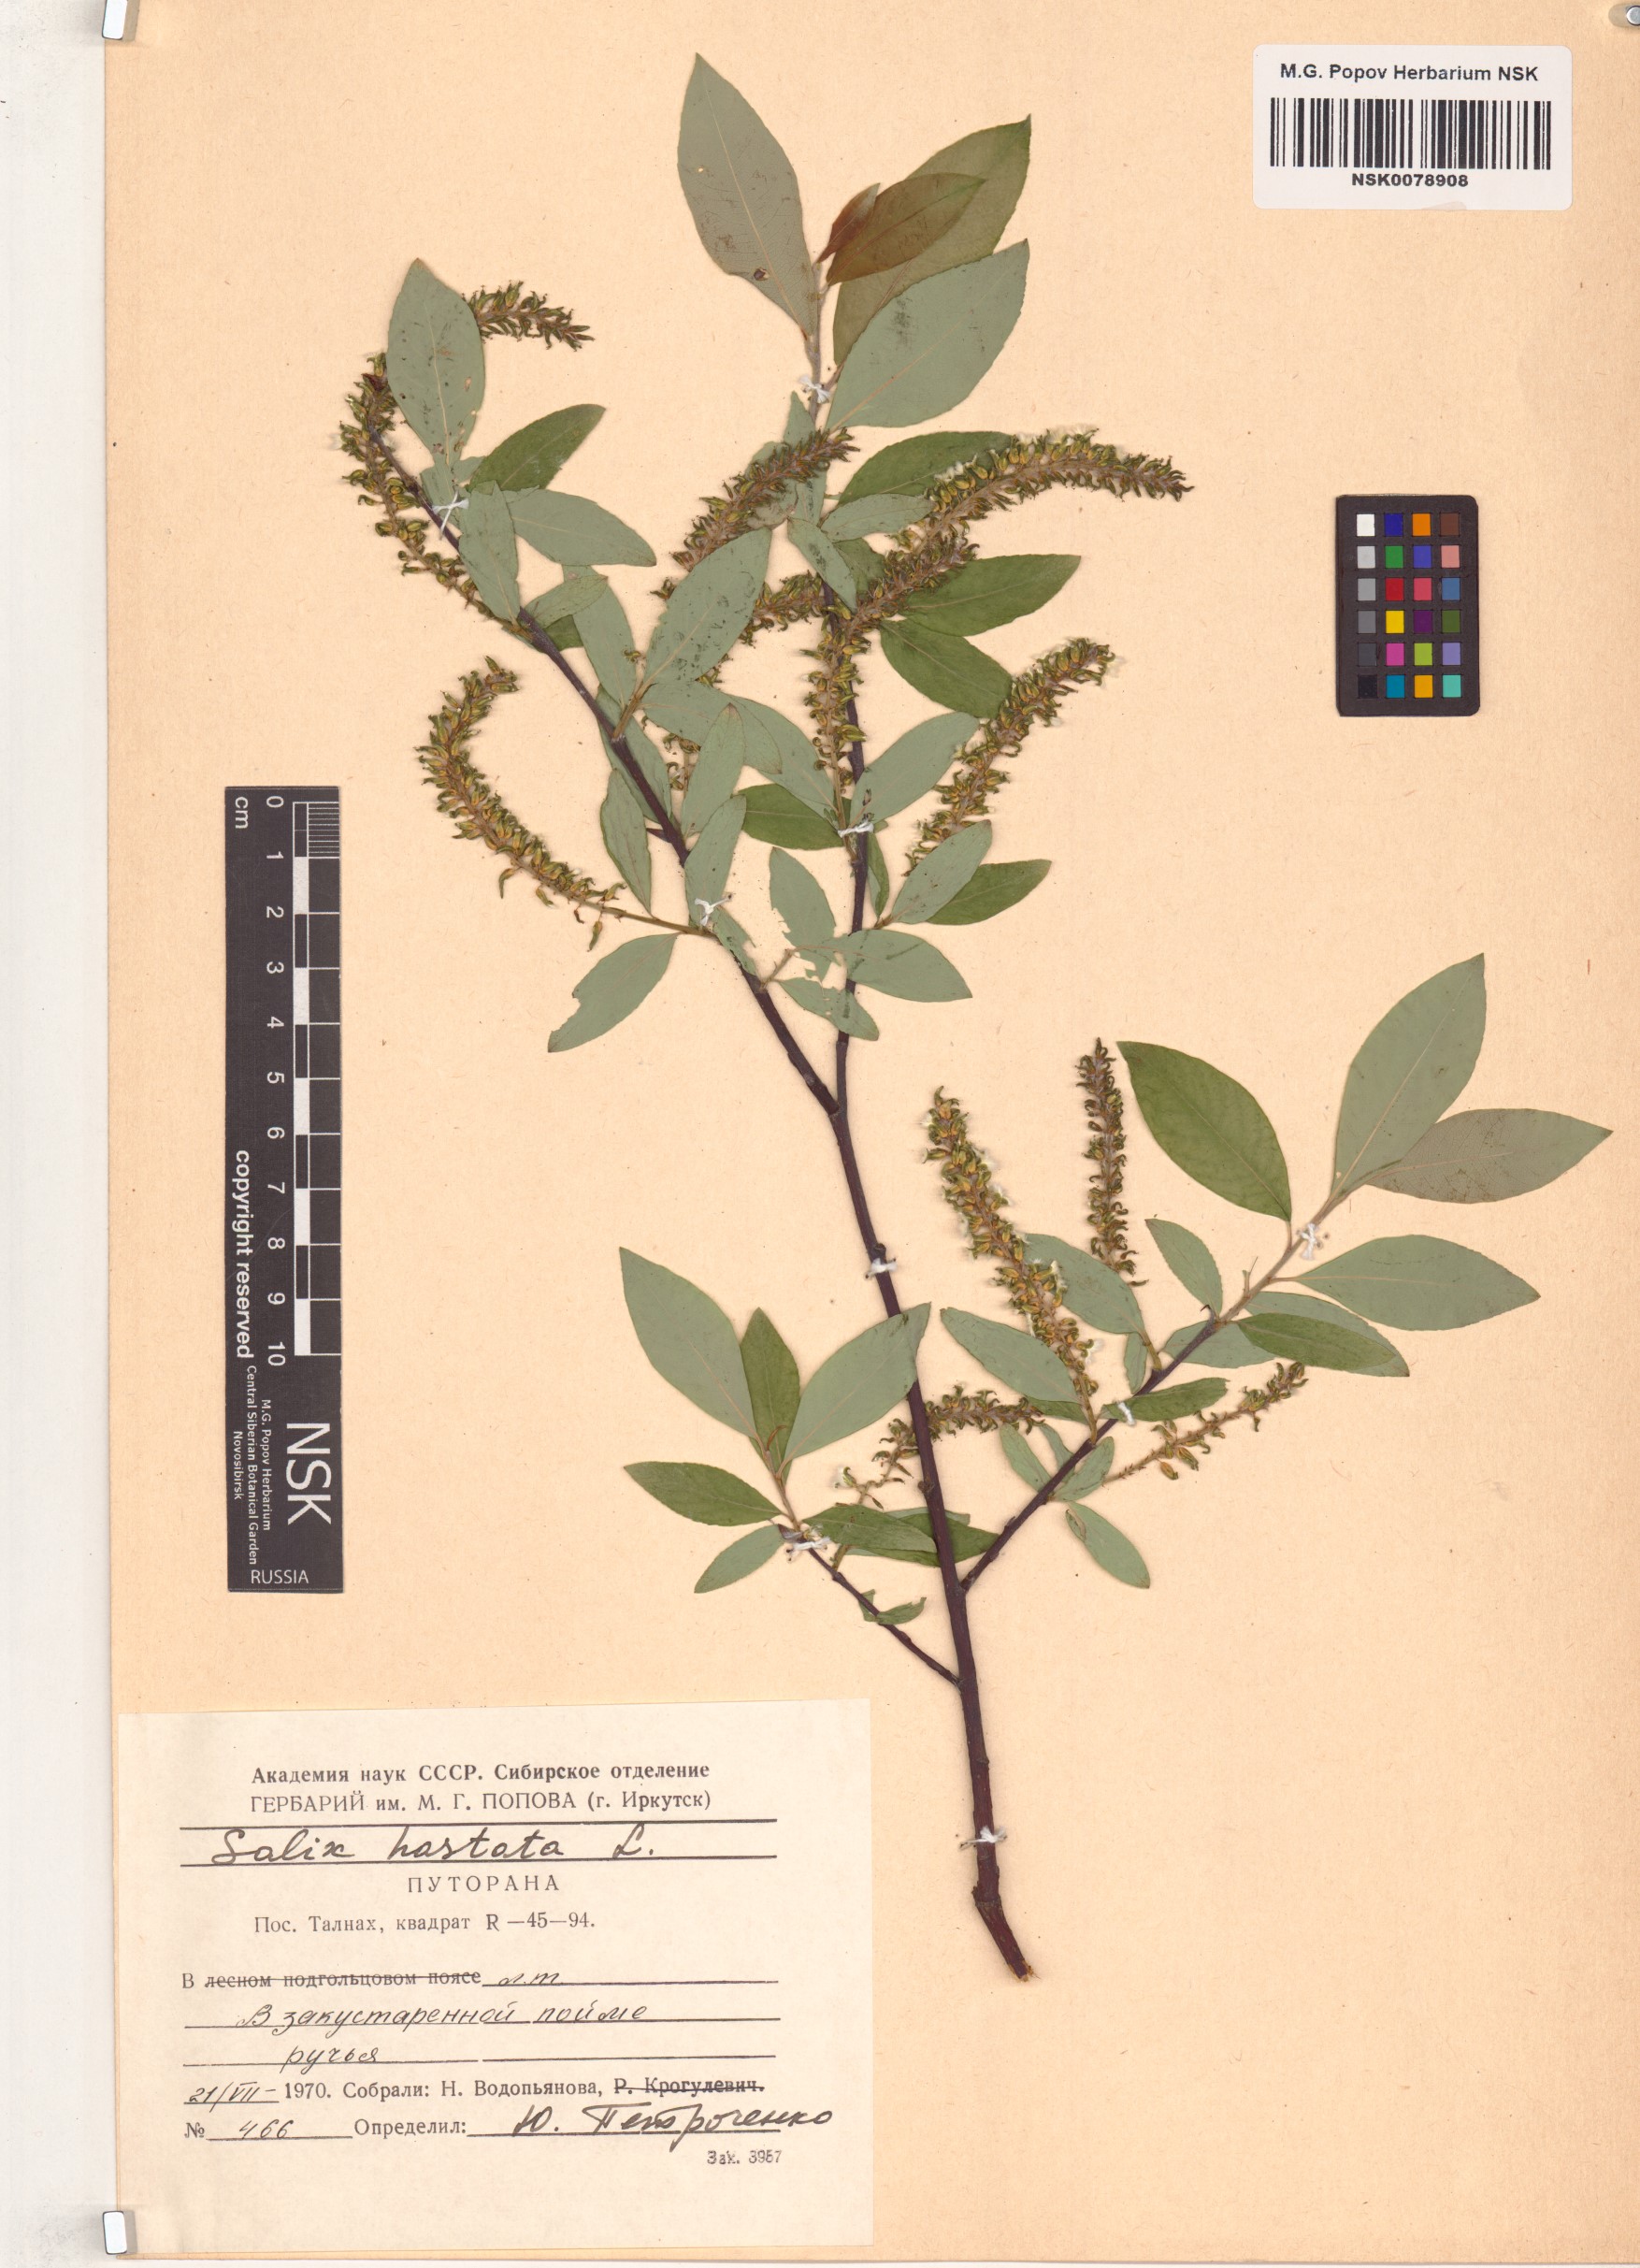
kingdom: Plantae
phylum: Tracheophyta
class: Magnoliopsida
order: Malpighiales
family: Salicaceae
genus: Salix
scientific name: Salix hastata
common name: Halberd willow
